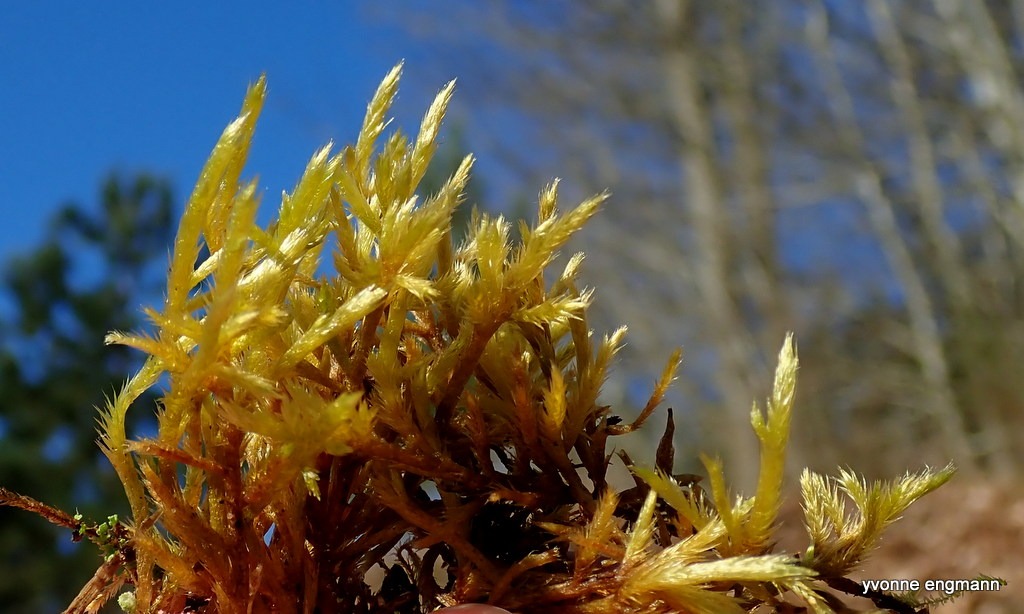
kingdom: Plantae
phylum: Bryophyta
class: Bryopsida
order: Hypnales
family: Brachytheciaceae
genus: Homalothecium
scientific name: Homalothecium lutescens
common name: Gul krumkapsel
